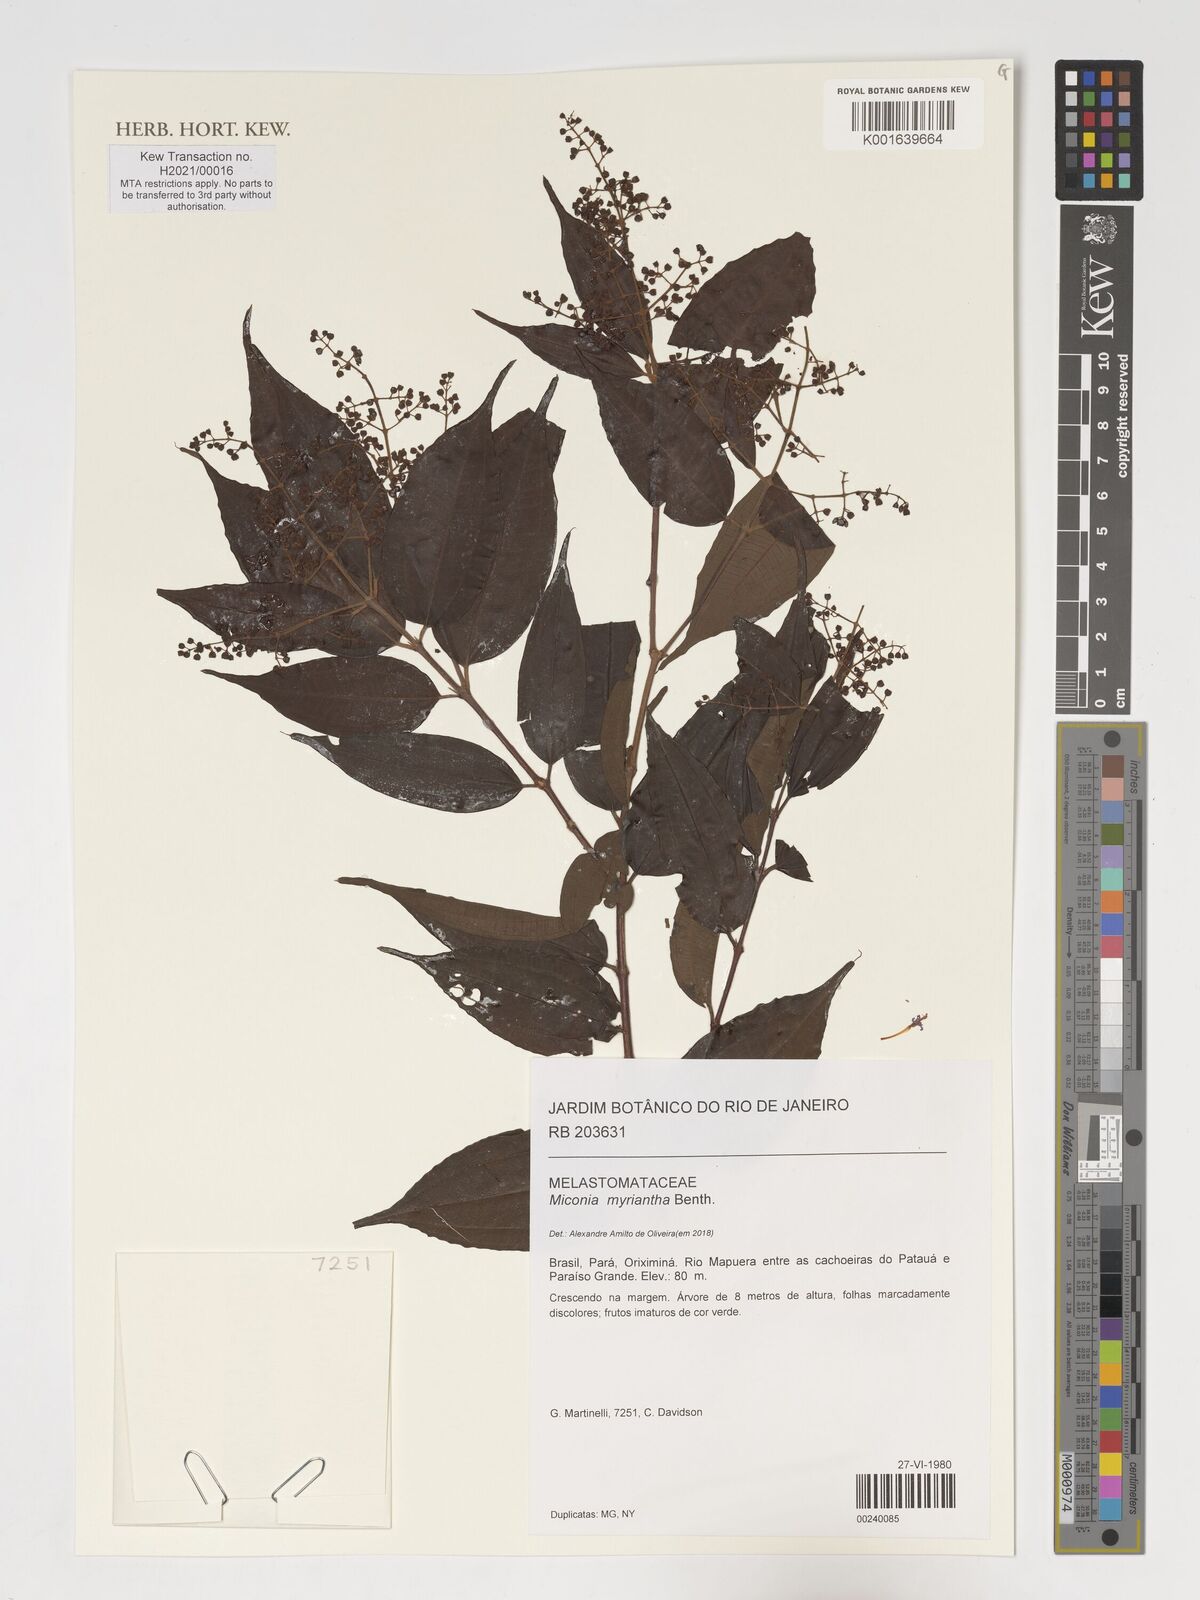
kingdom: Plantae
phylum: Tracheophyta
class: Magnoliopsida
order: Myrtales
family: Melastomataceae
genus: Miconia
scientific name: Miconia myriantha
